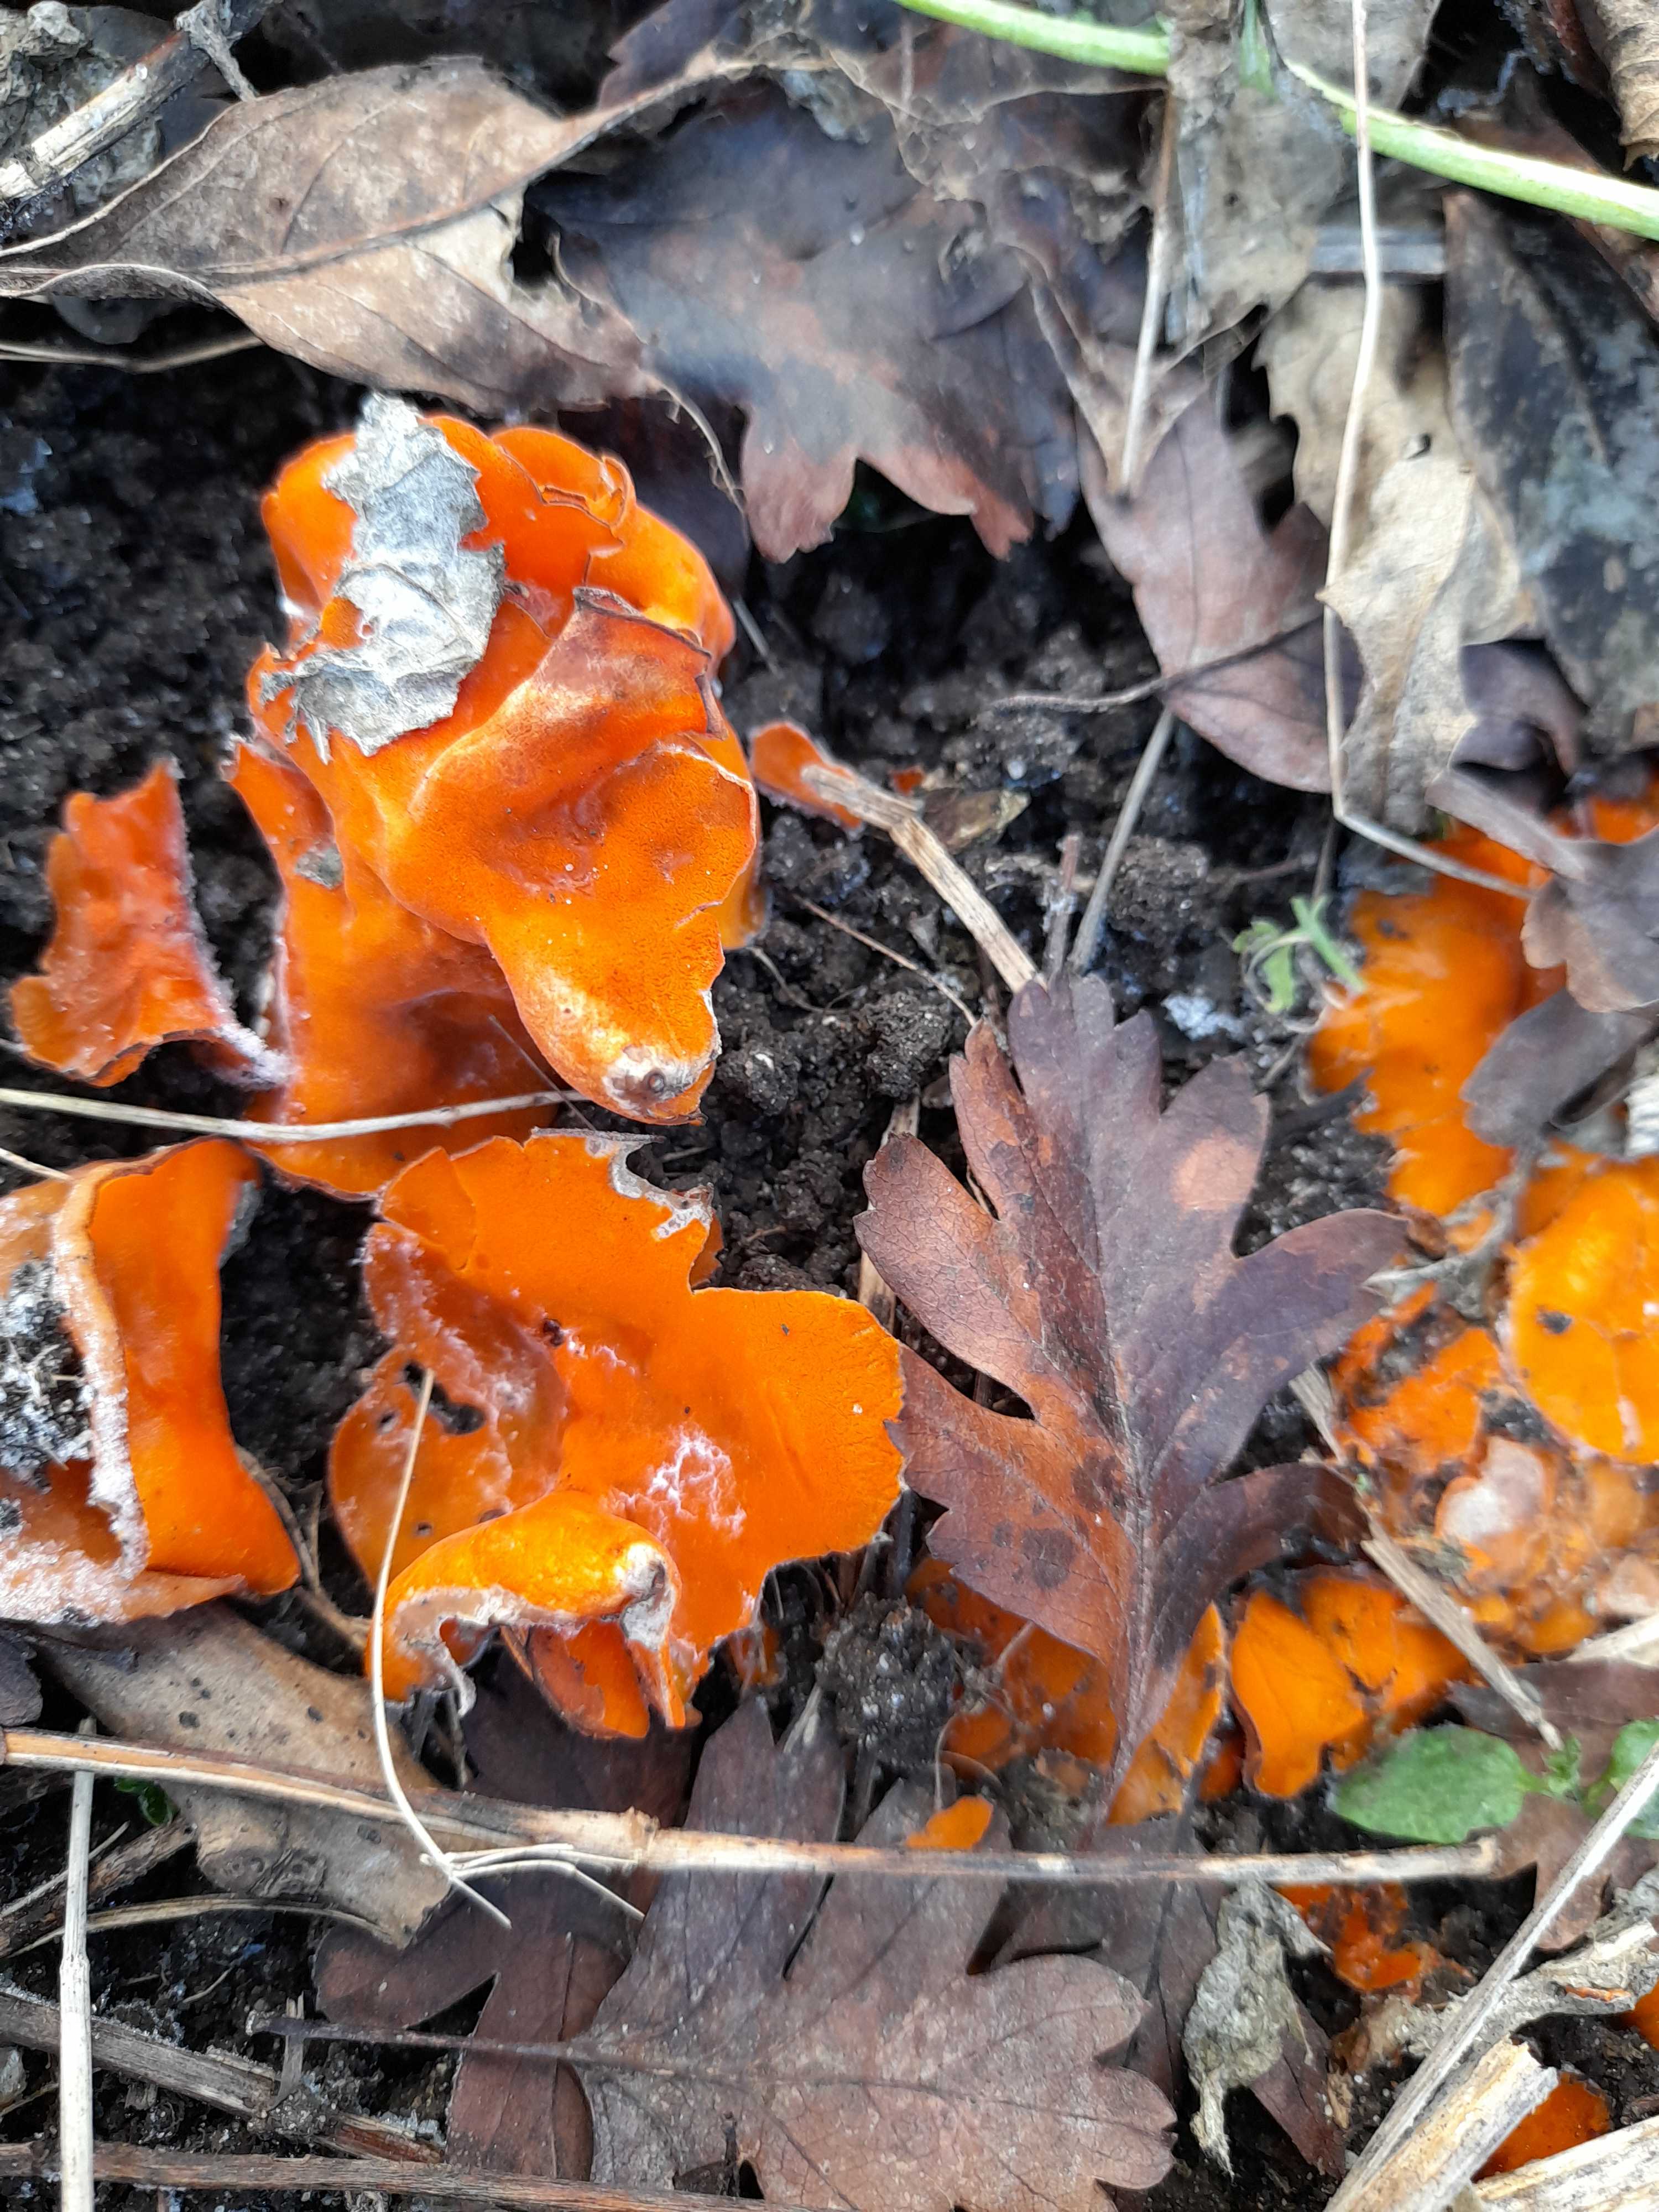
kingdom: Fungi
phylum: Ascomycota
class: Pezizomycetes
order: Pezizales
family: Pyronemataceae
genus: Aleuria
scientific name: Aleuria aurantia
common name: almindelig orangebæger
